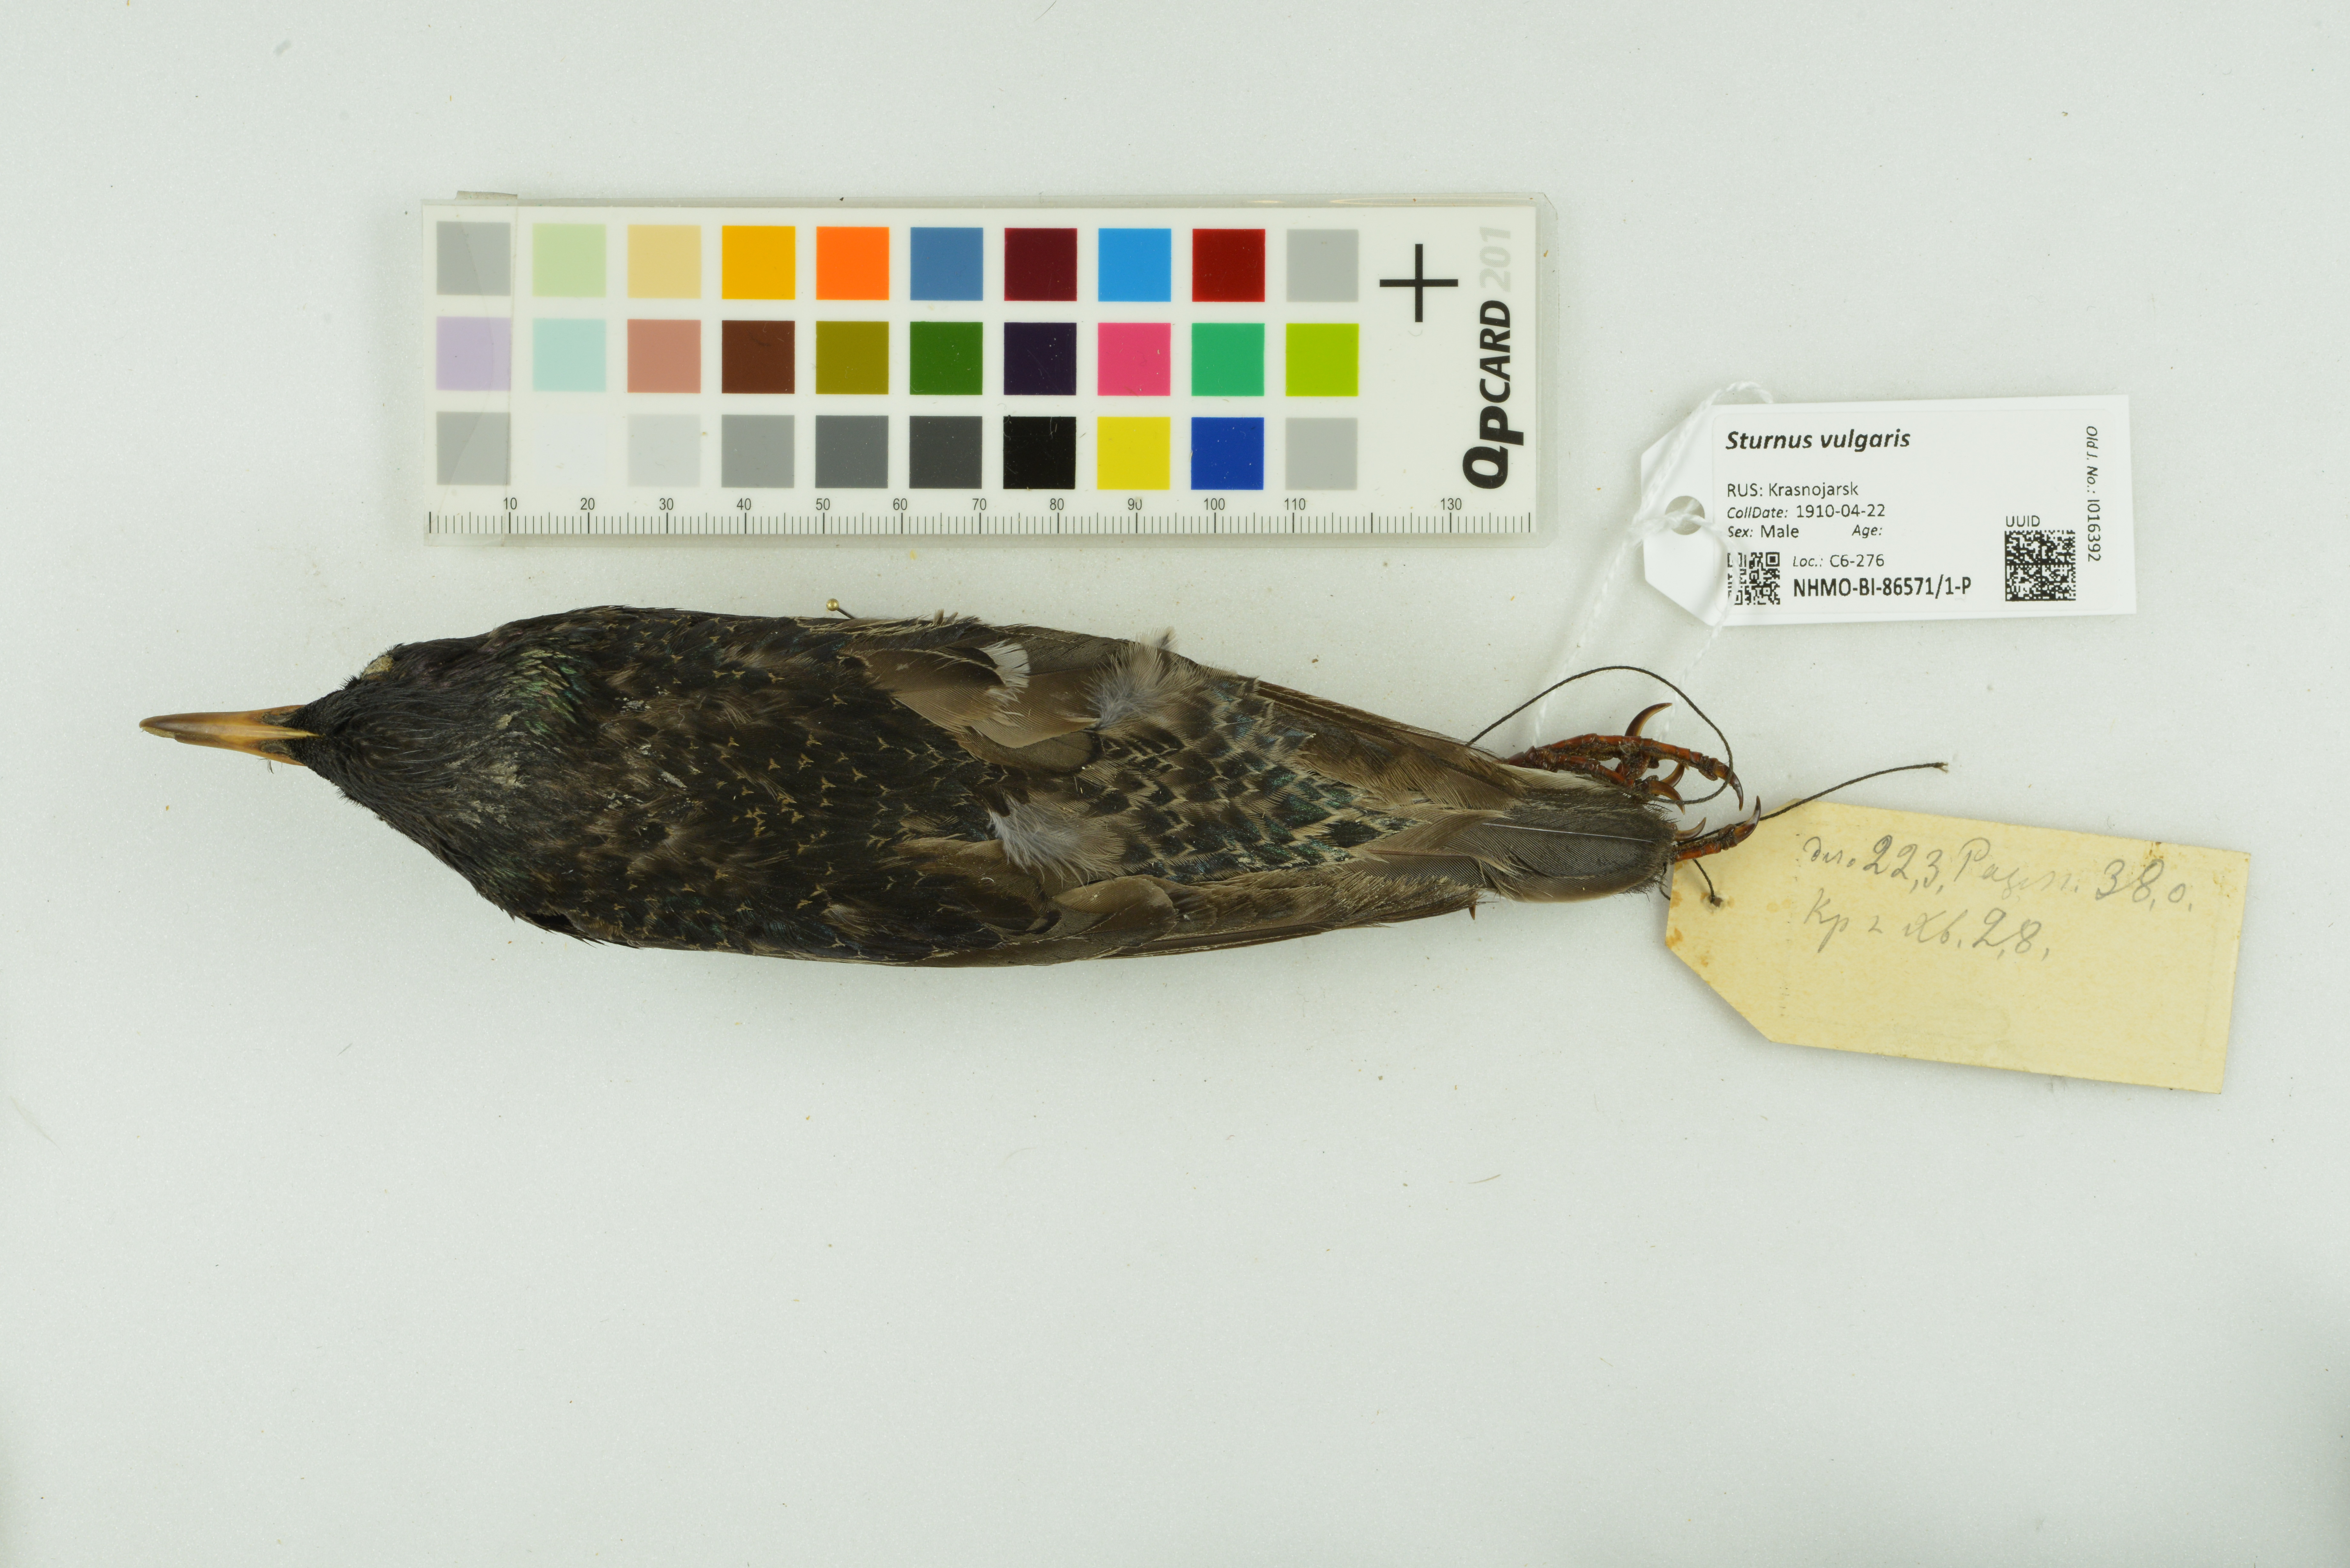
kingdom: Animalia
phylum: Chordata
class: Aves
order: Passeriformes
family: Sturnidae
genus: Sturnus
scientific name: Sturnus vulgaris
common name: Common starling
